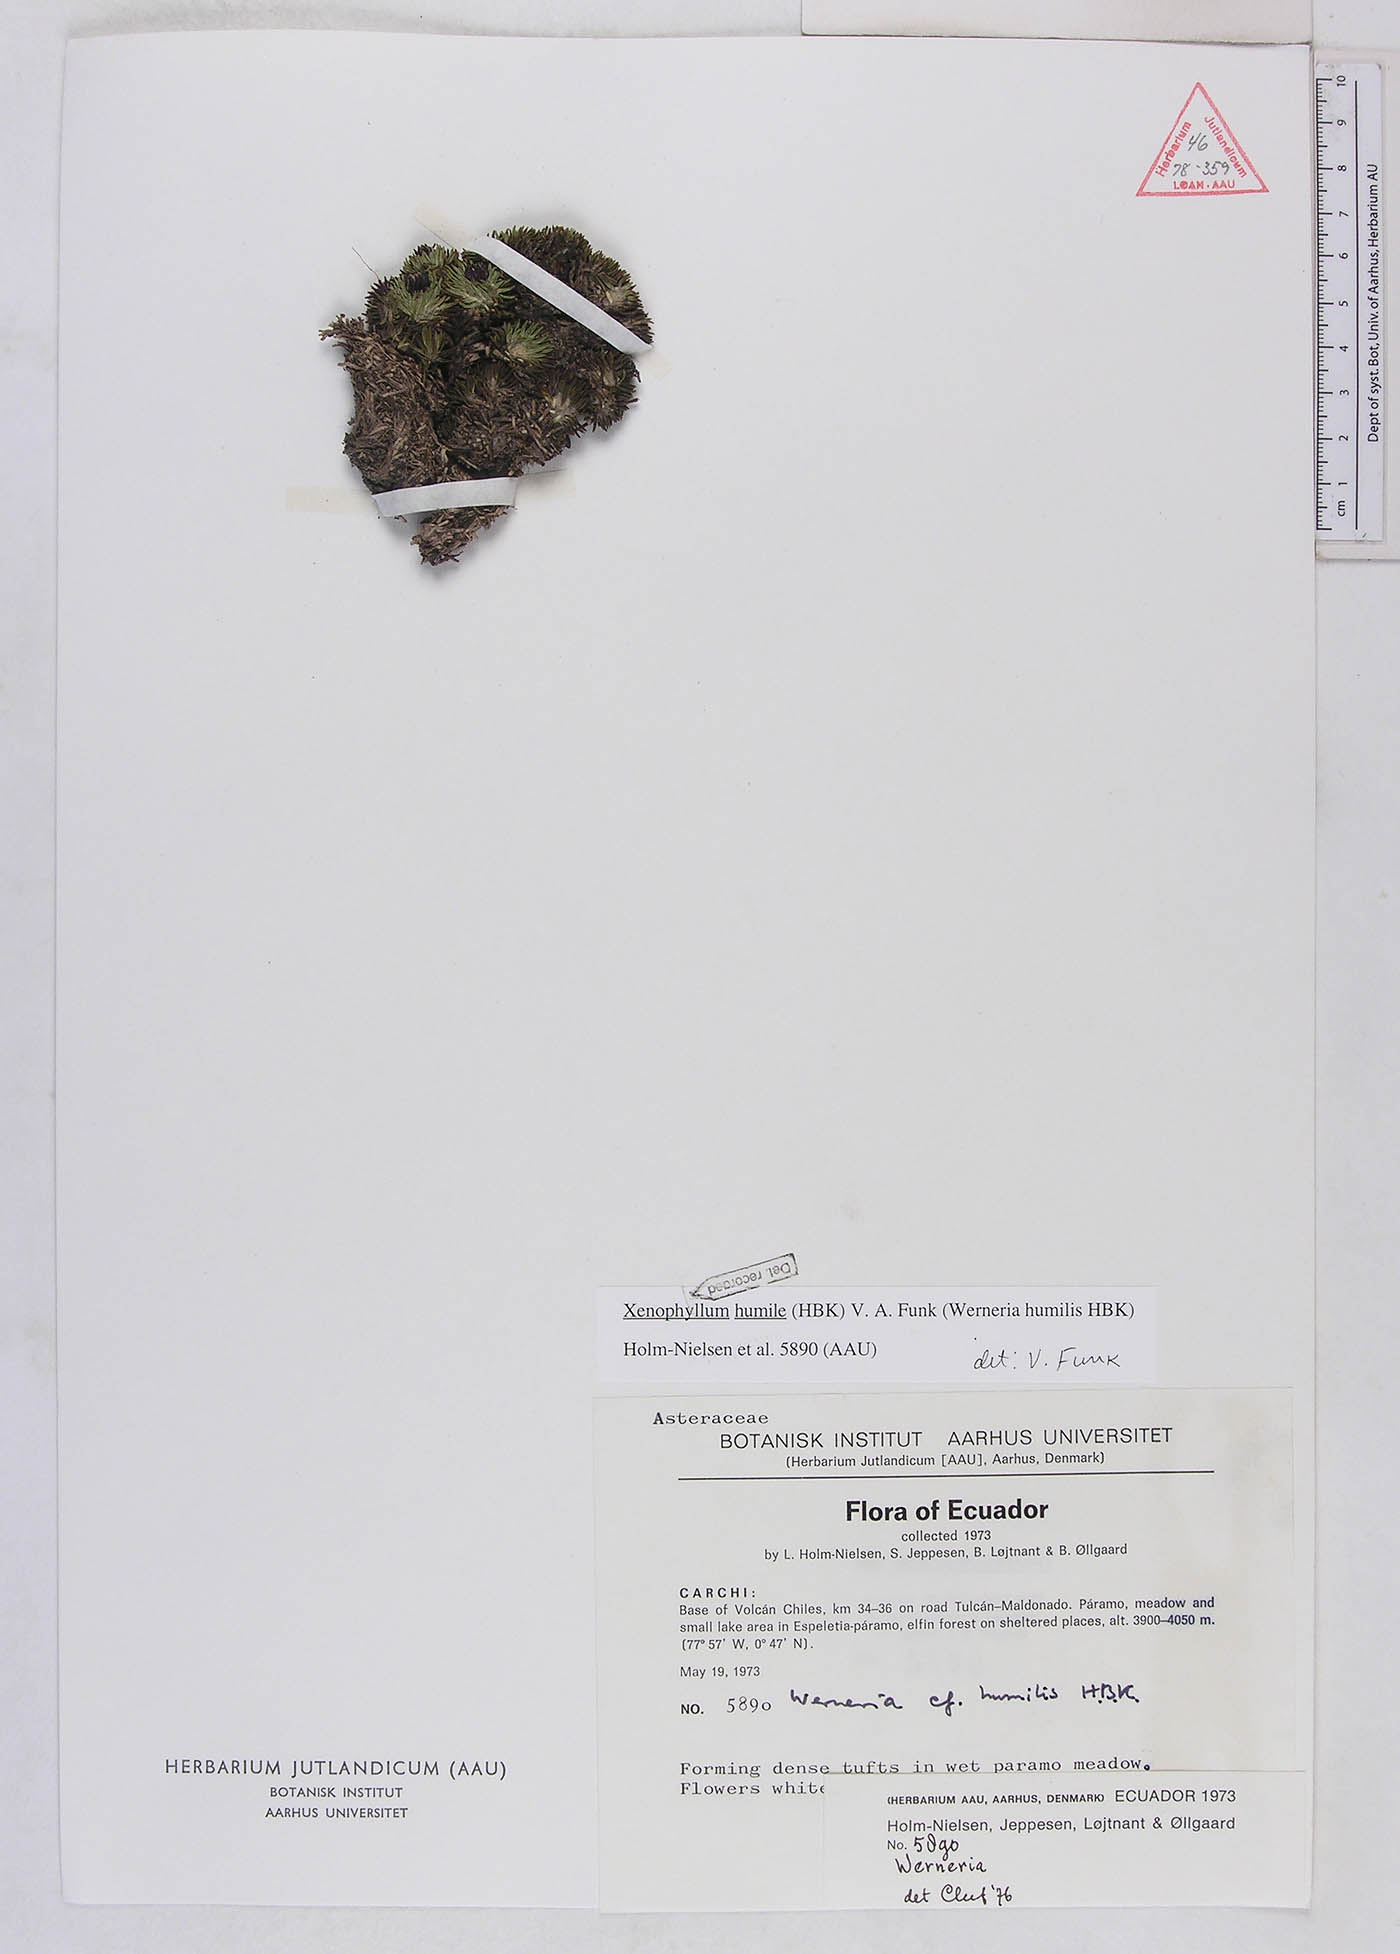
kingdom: Plantae
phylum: Tracheophyta
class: Magnoliopsida
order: Asterales
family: Asteraceae
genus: Werneria
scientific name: Werneria humilis
